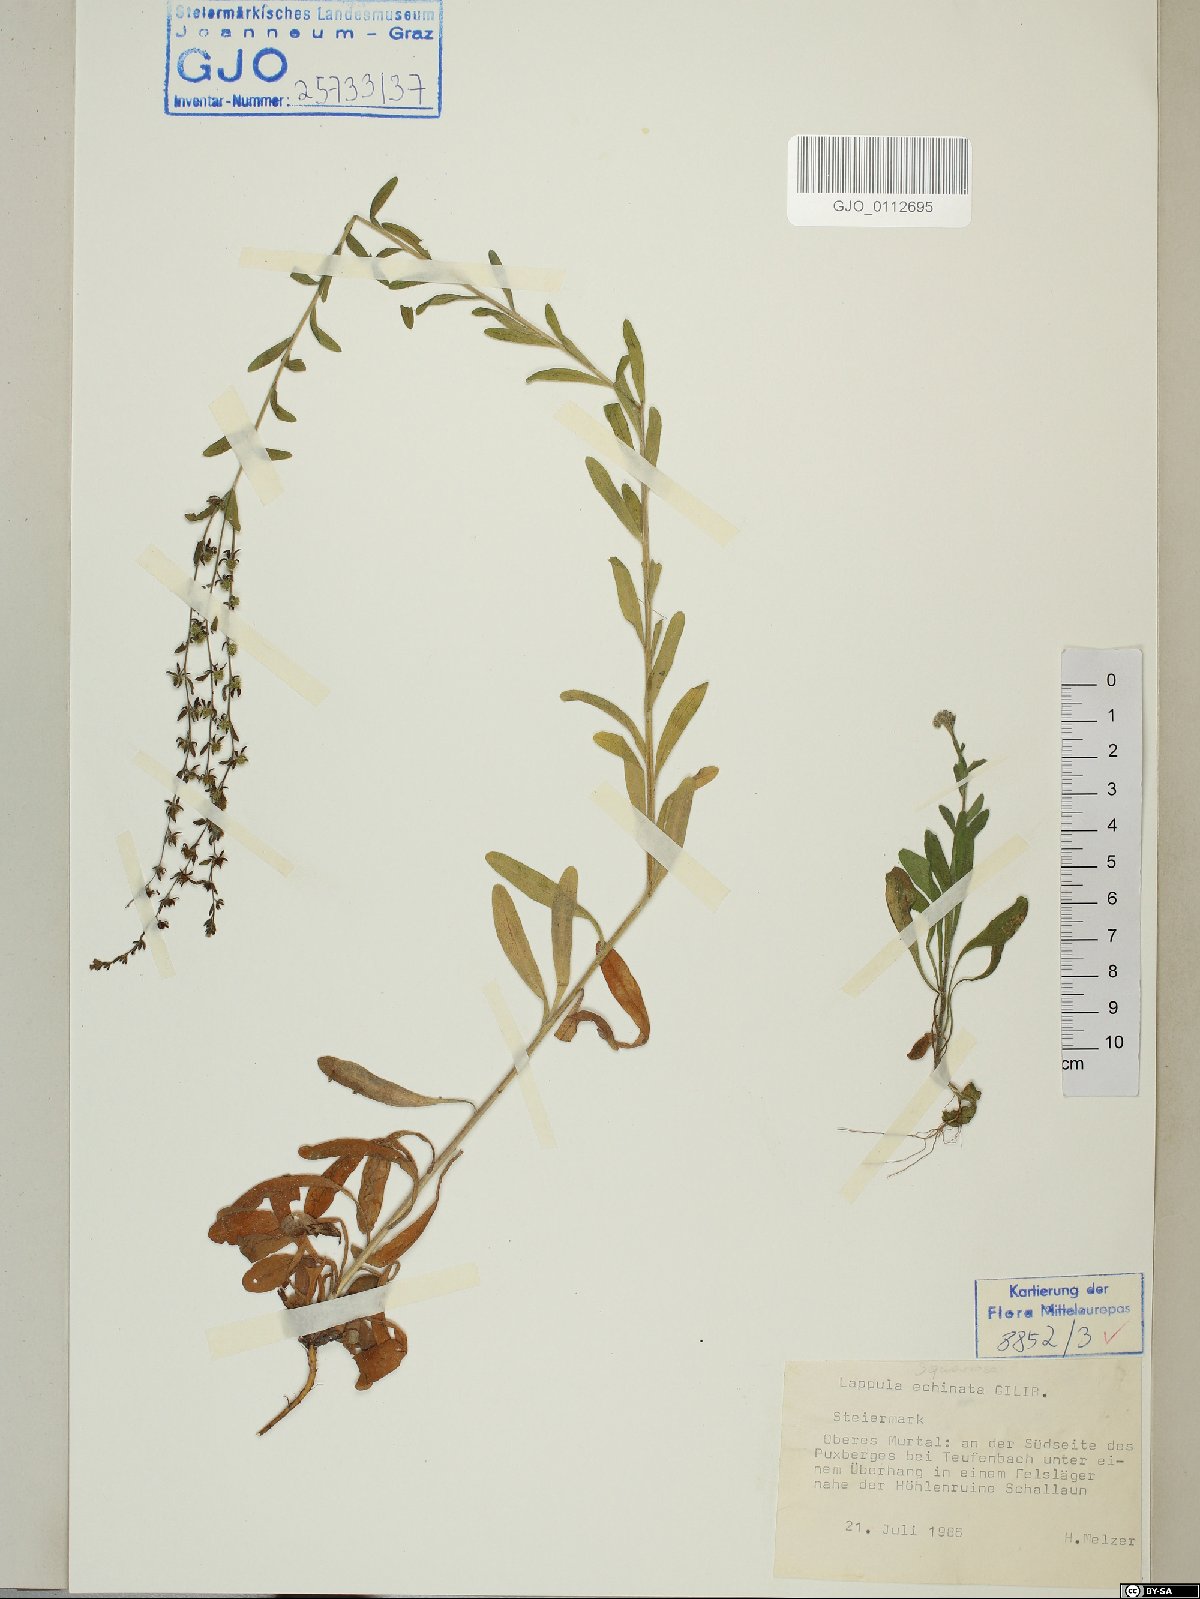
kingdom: Plantae
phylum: Tracheophyta
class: Magnoliopsida
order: Boraginales
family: Boraginaceae
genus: Lappula
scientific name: Lappula squarrosa
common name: European stickseed
